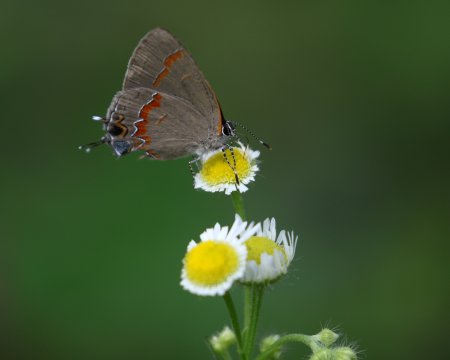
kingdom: Animalia
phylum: Arthropoda
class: Insecta
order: Lepidoptera
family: Lycaenidae
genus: Calycopis
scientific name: Calycopis cecrops
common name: Red-banded Hairstreak
